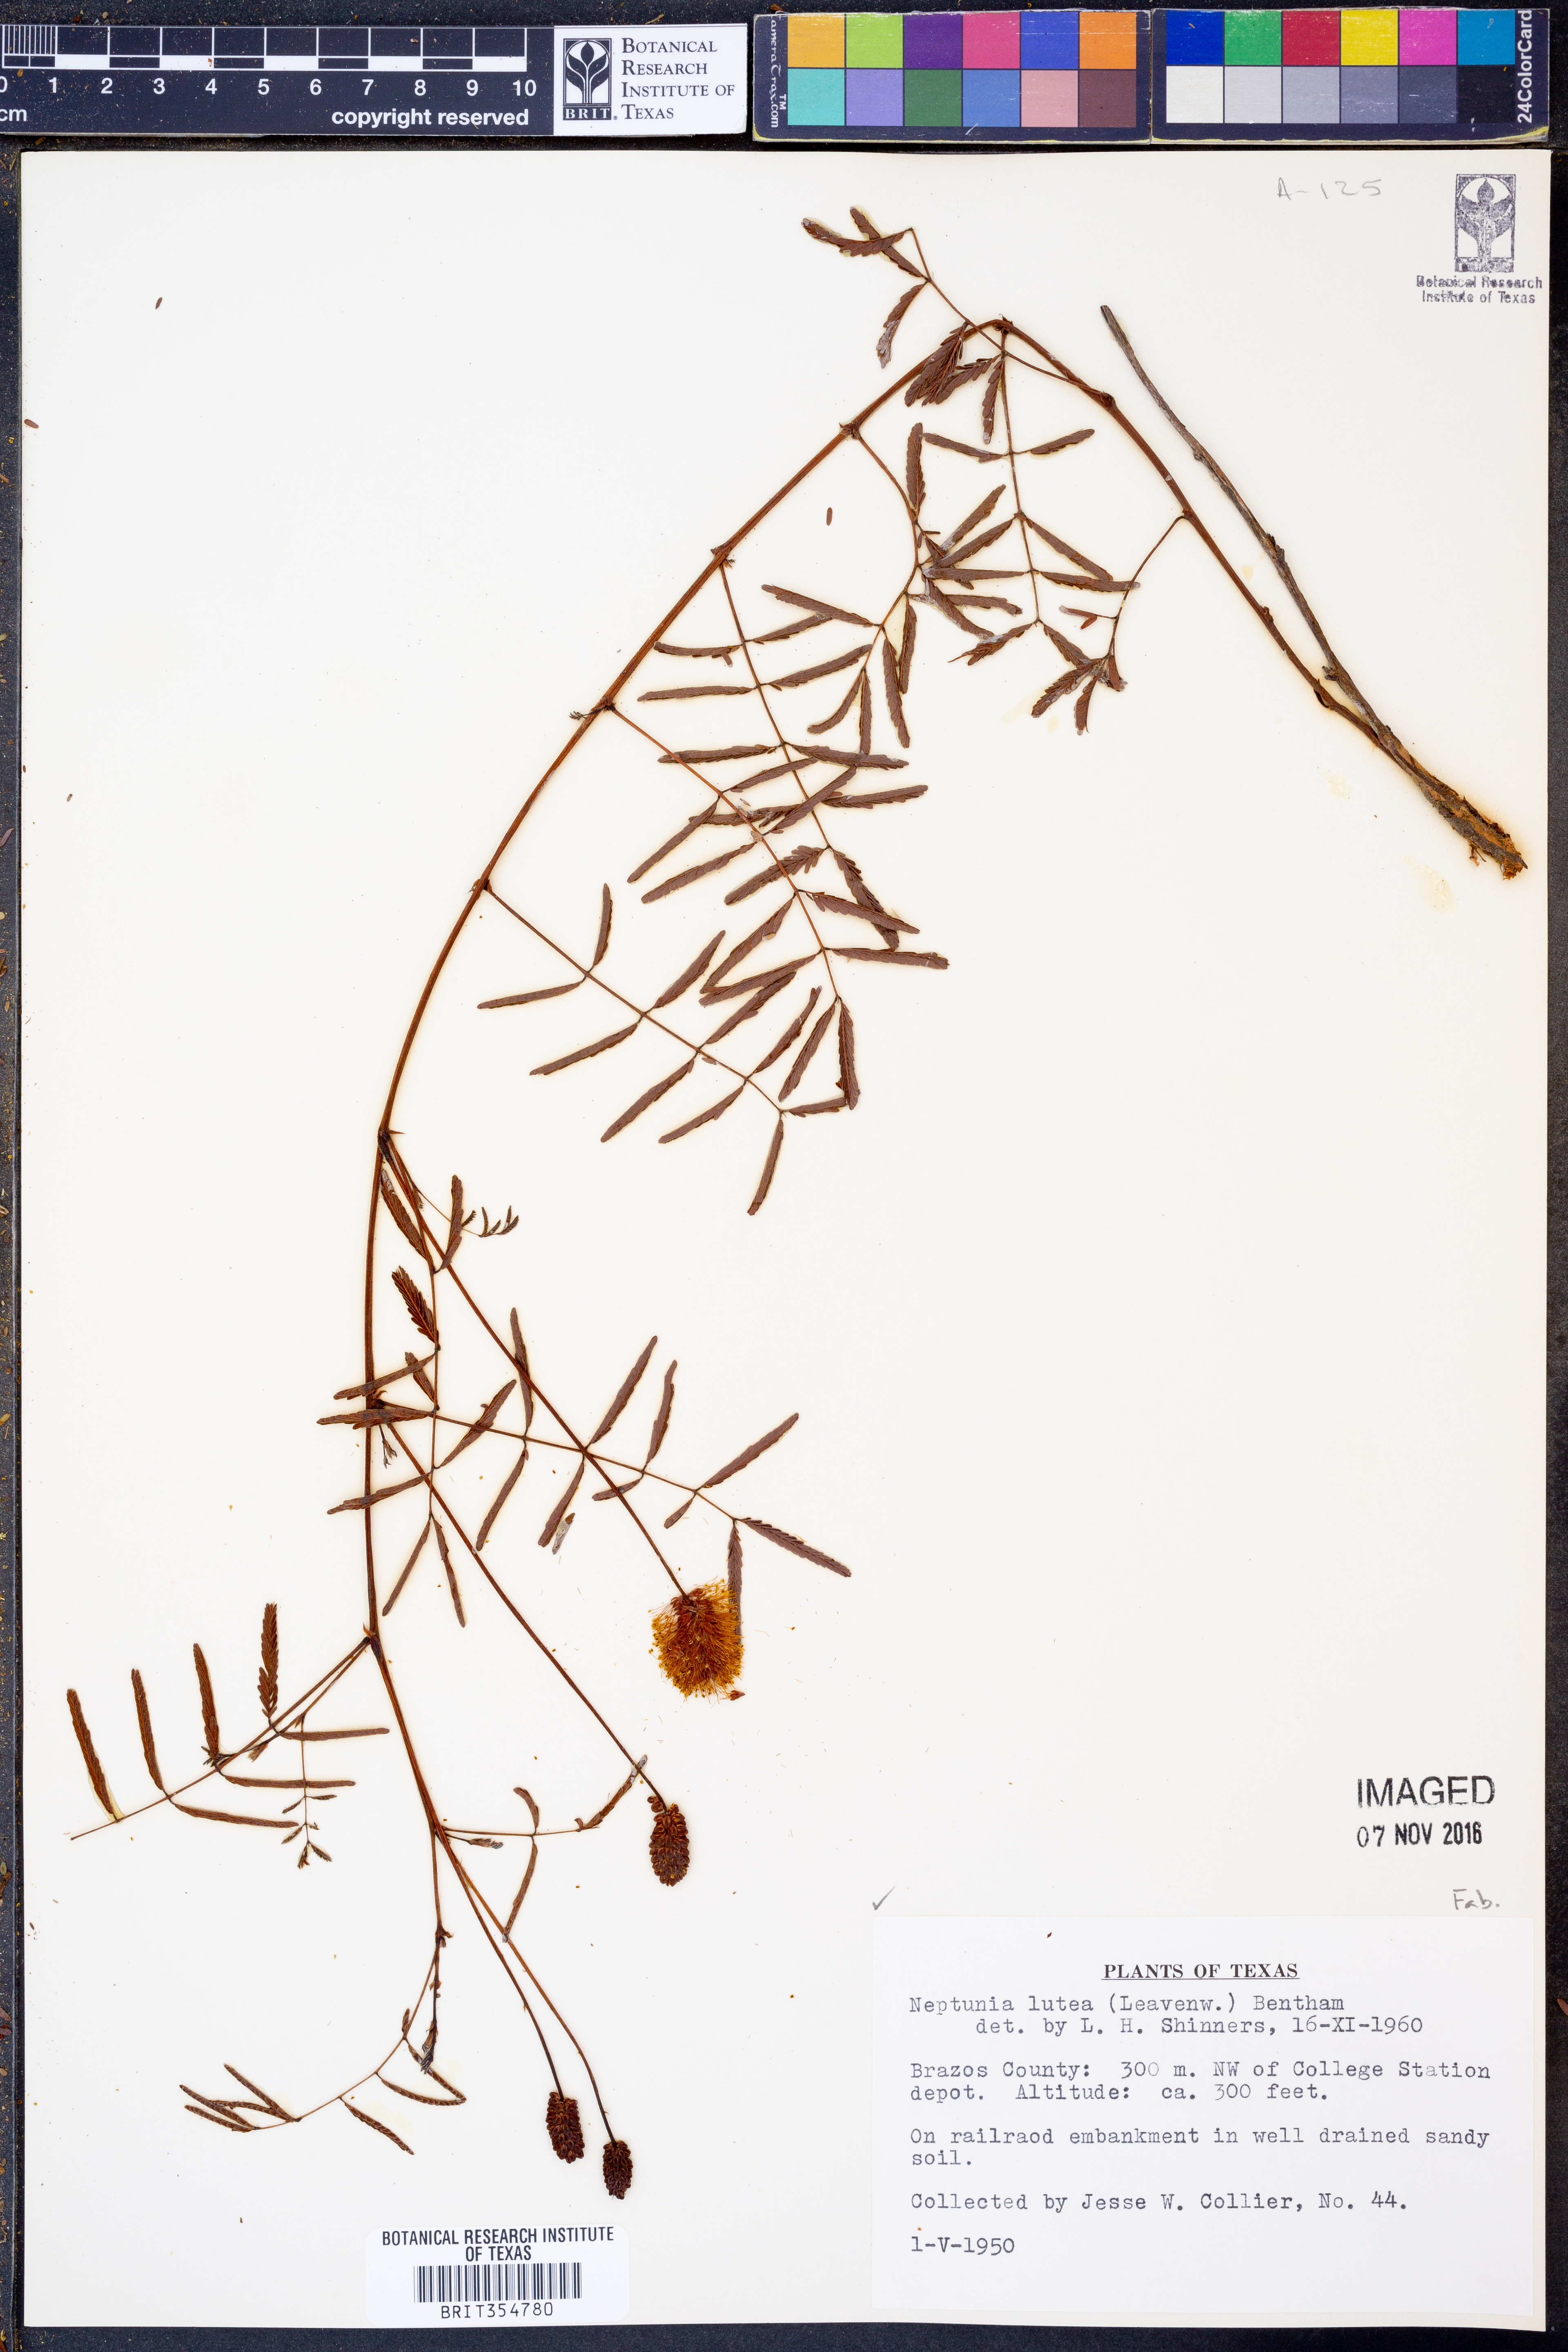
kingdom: Plantae
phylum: Tracheophyta
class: Magnoliopsida
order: Fabales
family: Fabaceae
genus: Neptunia
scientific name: Neptunia lutea
